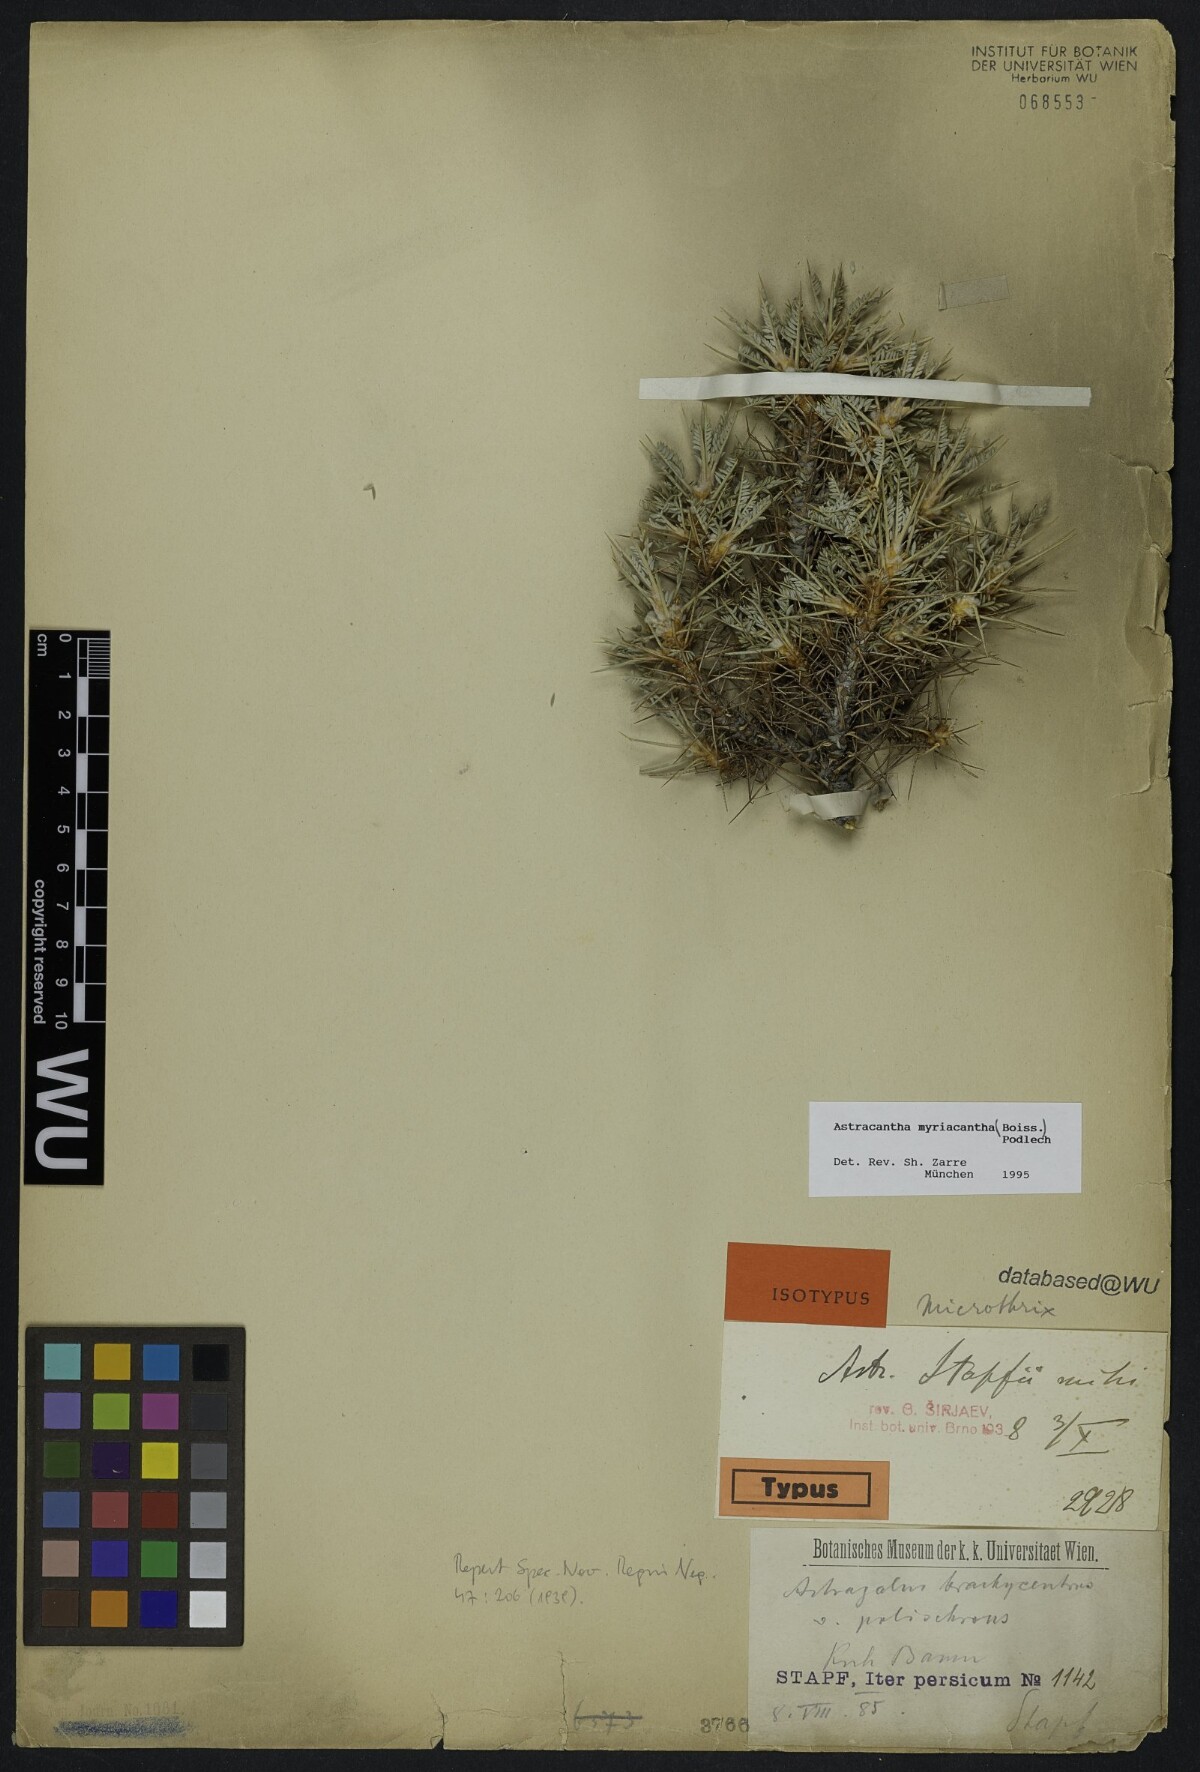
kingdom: Plantae
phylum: Tracheophyta
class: Magnoliopsida
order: Fabales
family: Fabaceae
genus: Astragalus
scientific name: Astragalus myriacanthus
